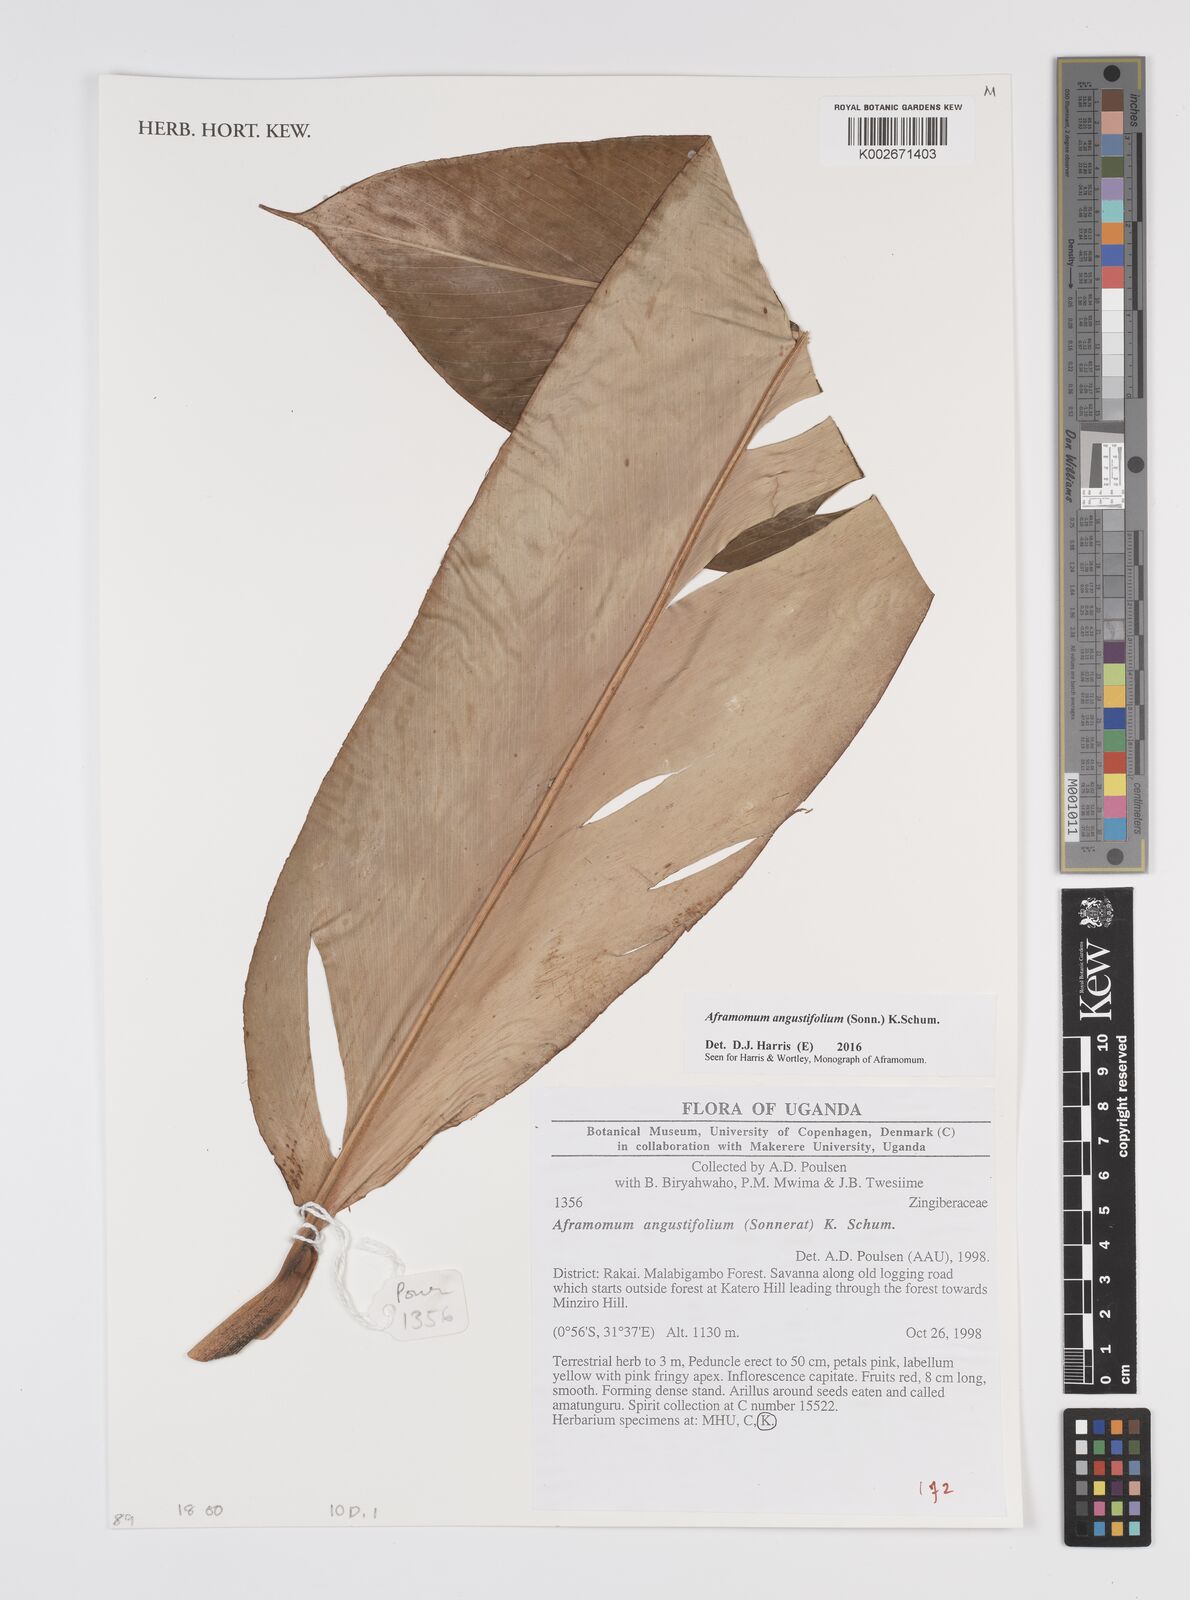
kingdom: Plantae
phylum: Tracheophyta
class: Liliopsida
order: Zingiberales
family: Zingiberaceae
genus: Aframomum
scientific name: Aframomum angustifolium
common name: Guinea grains
